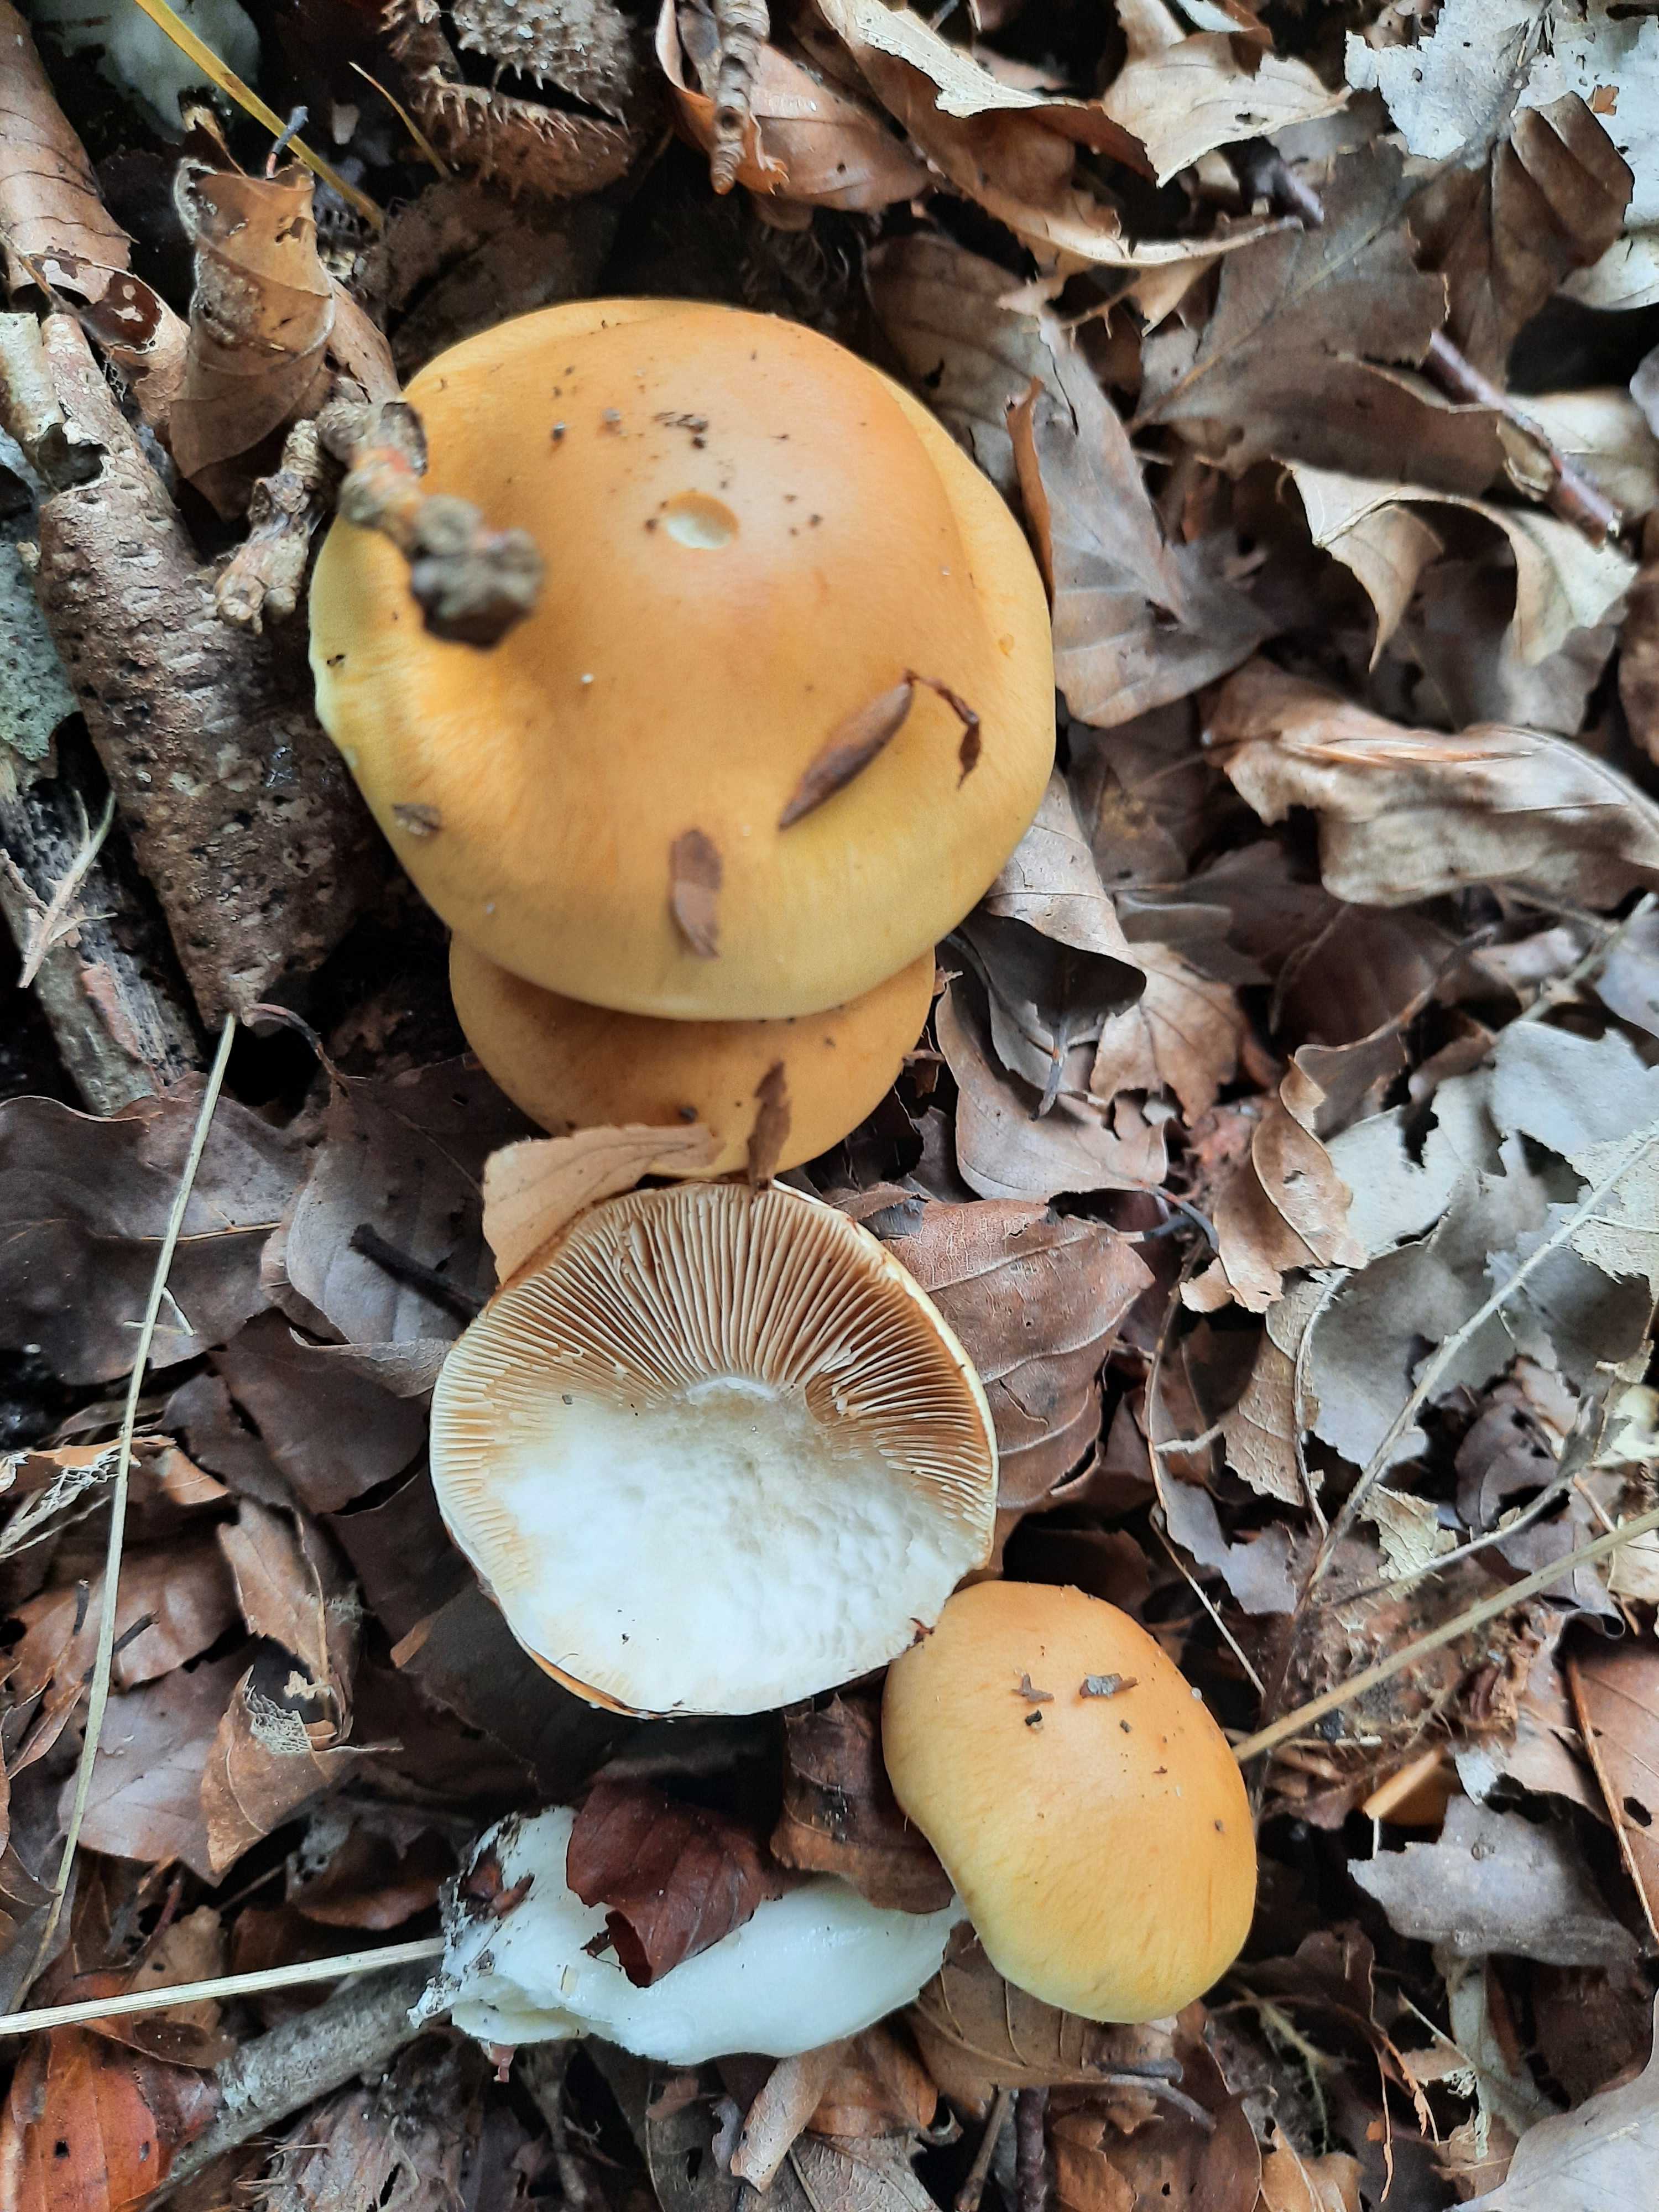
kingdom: Fungi
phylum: Basidiomycota
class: Agaricomycetes
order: Agaricales
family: Cortinariaceae
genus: Thaxterogaster
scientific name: Thaxterogaster emollitus
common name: besk slørhat
